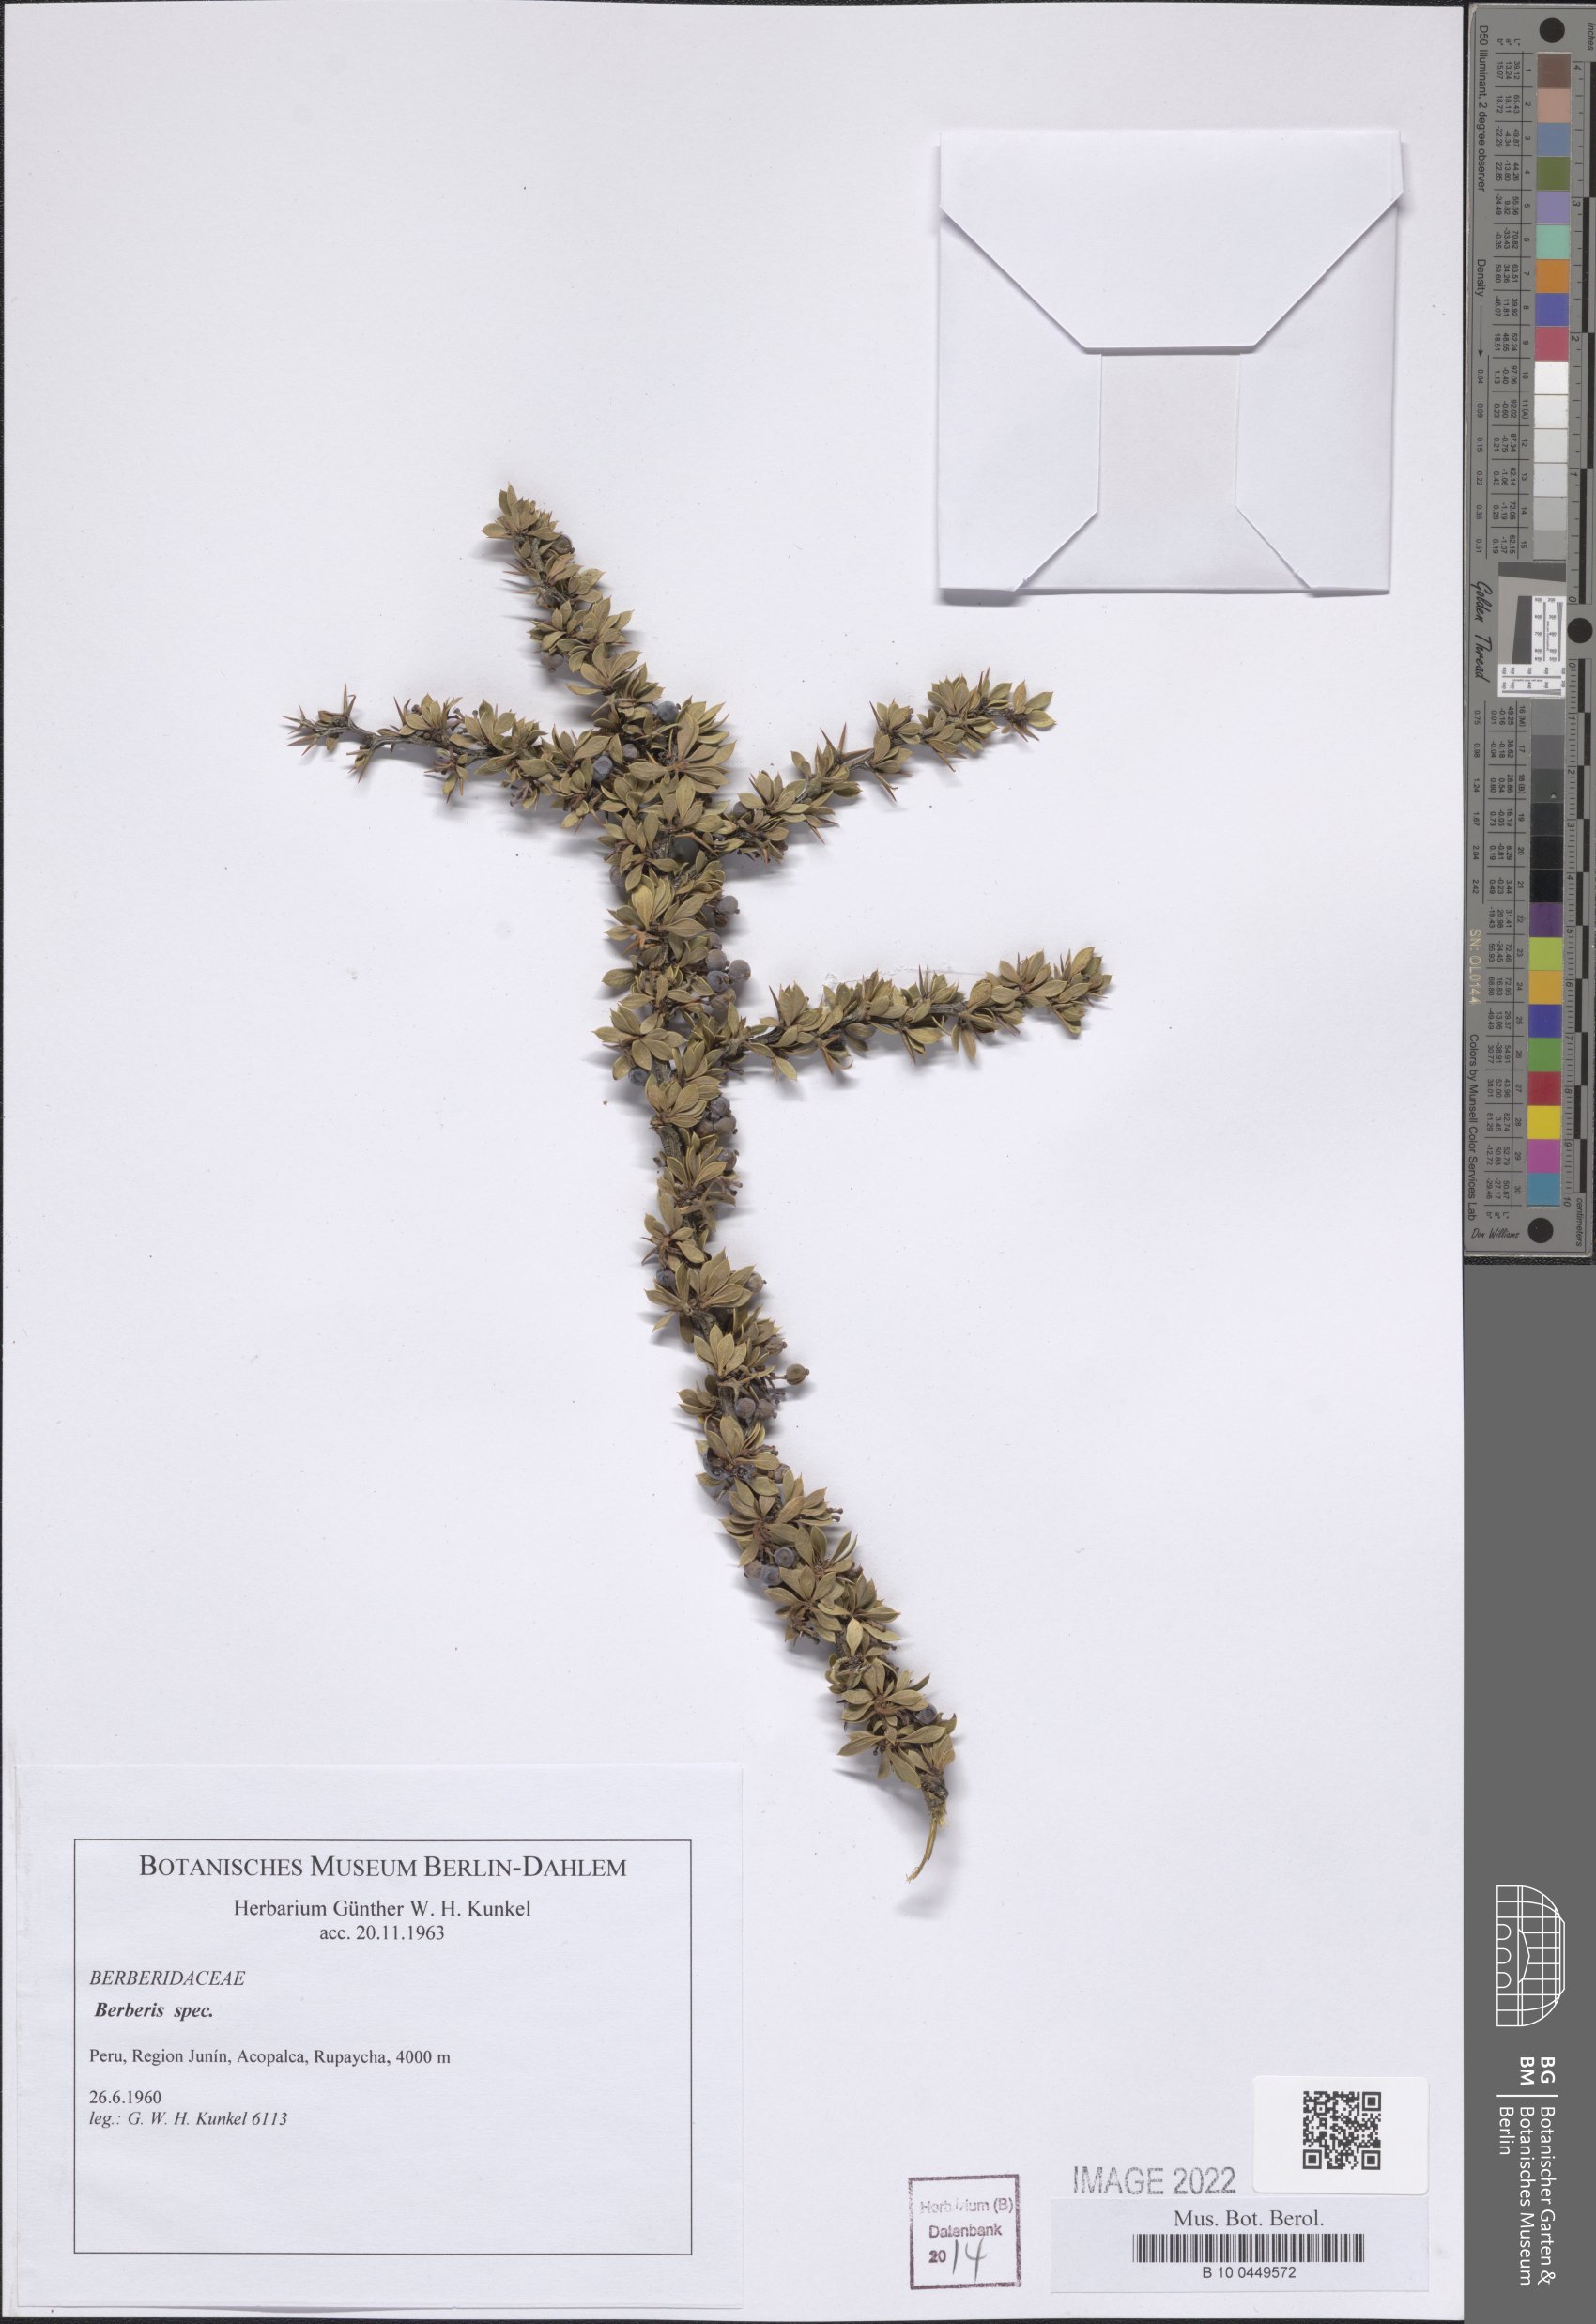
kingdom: Plantae
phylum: Tracheophyta
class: Magnoliopsida
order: Ranunculales
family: Berberidaceae
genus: Berberis
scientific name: Berberis
